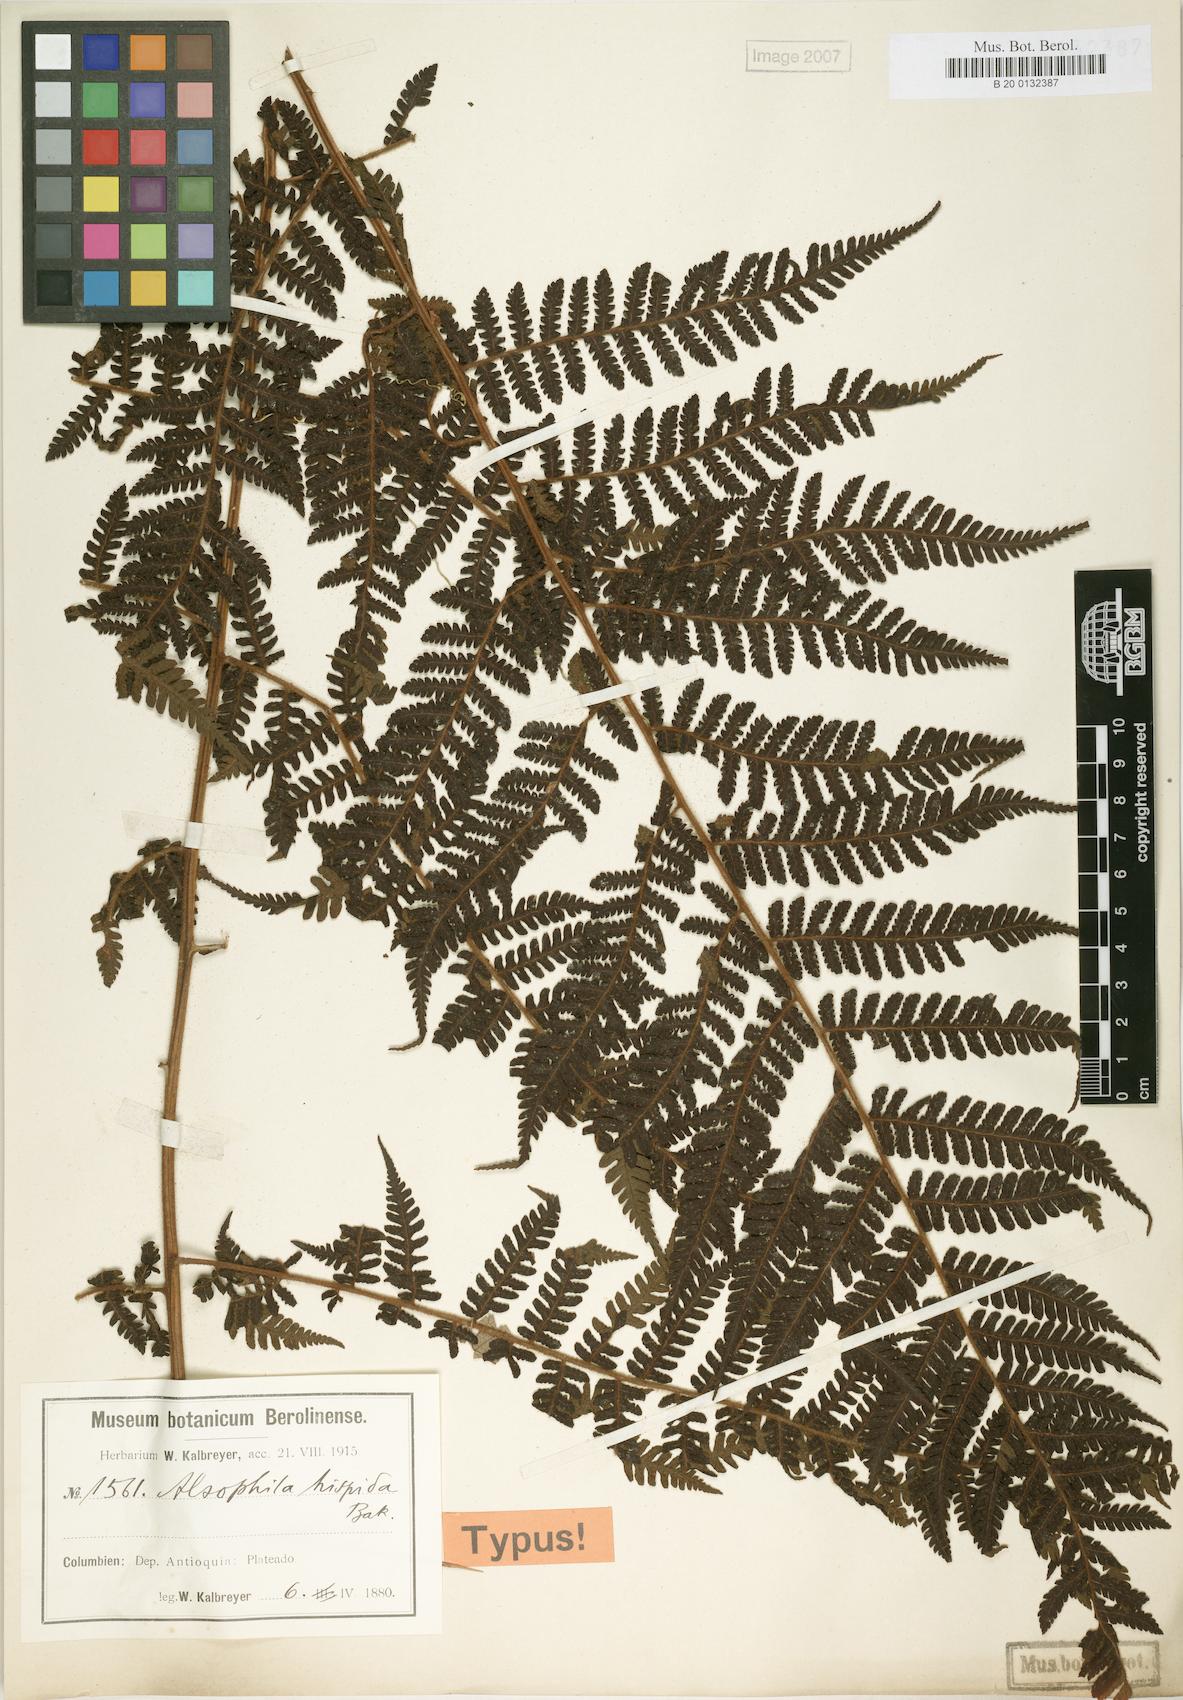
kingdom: Plantae
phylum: Tracheophyta
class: Polypodiopsida
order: Cyatheales
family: Cyatheaceae
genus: Alsophila
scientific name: Alsophila hispida
